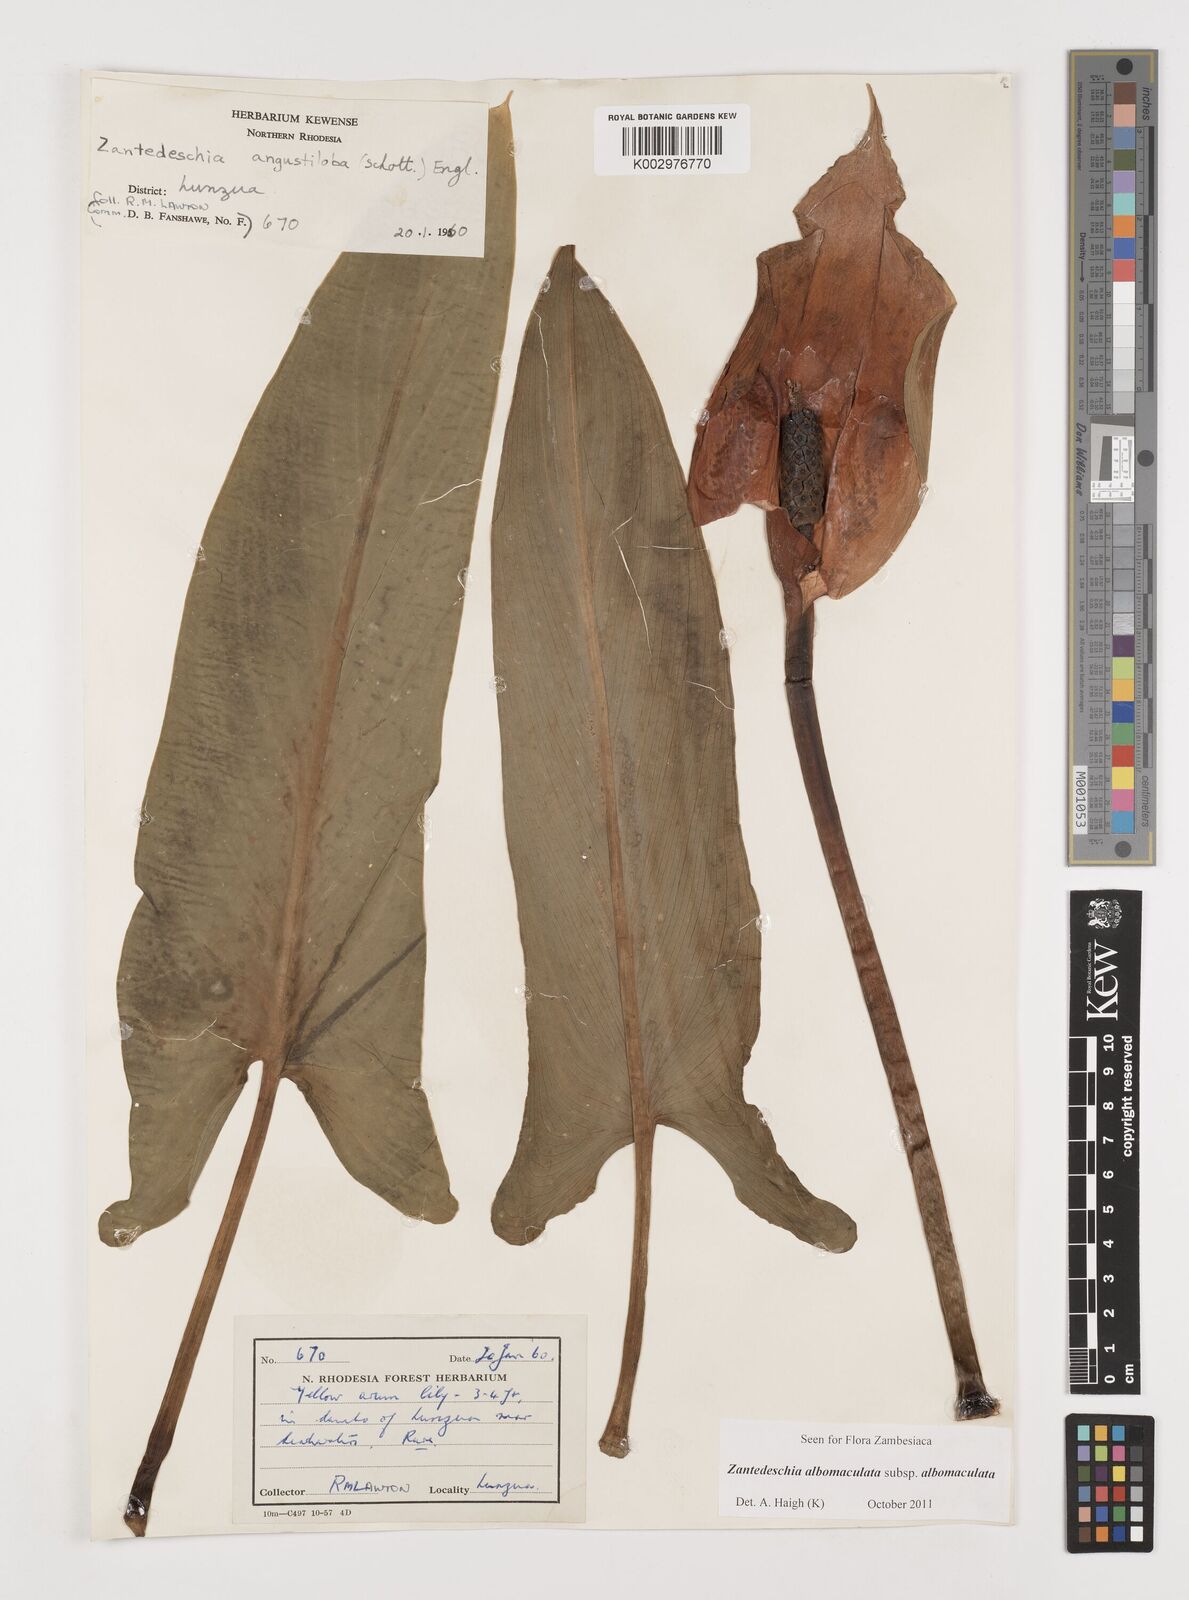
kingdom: Plantae
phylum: Tracheophyta
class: Liliopsida
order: Alismatales
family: Araceae
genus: Zantedeschia
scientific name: Zantedeschia albomaculata
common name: Spotted calla lily
